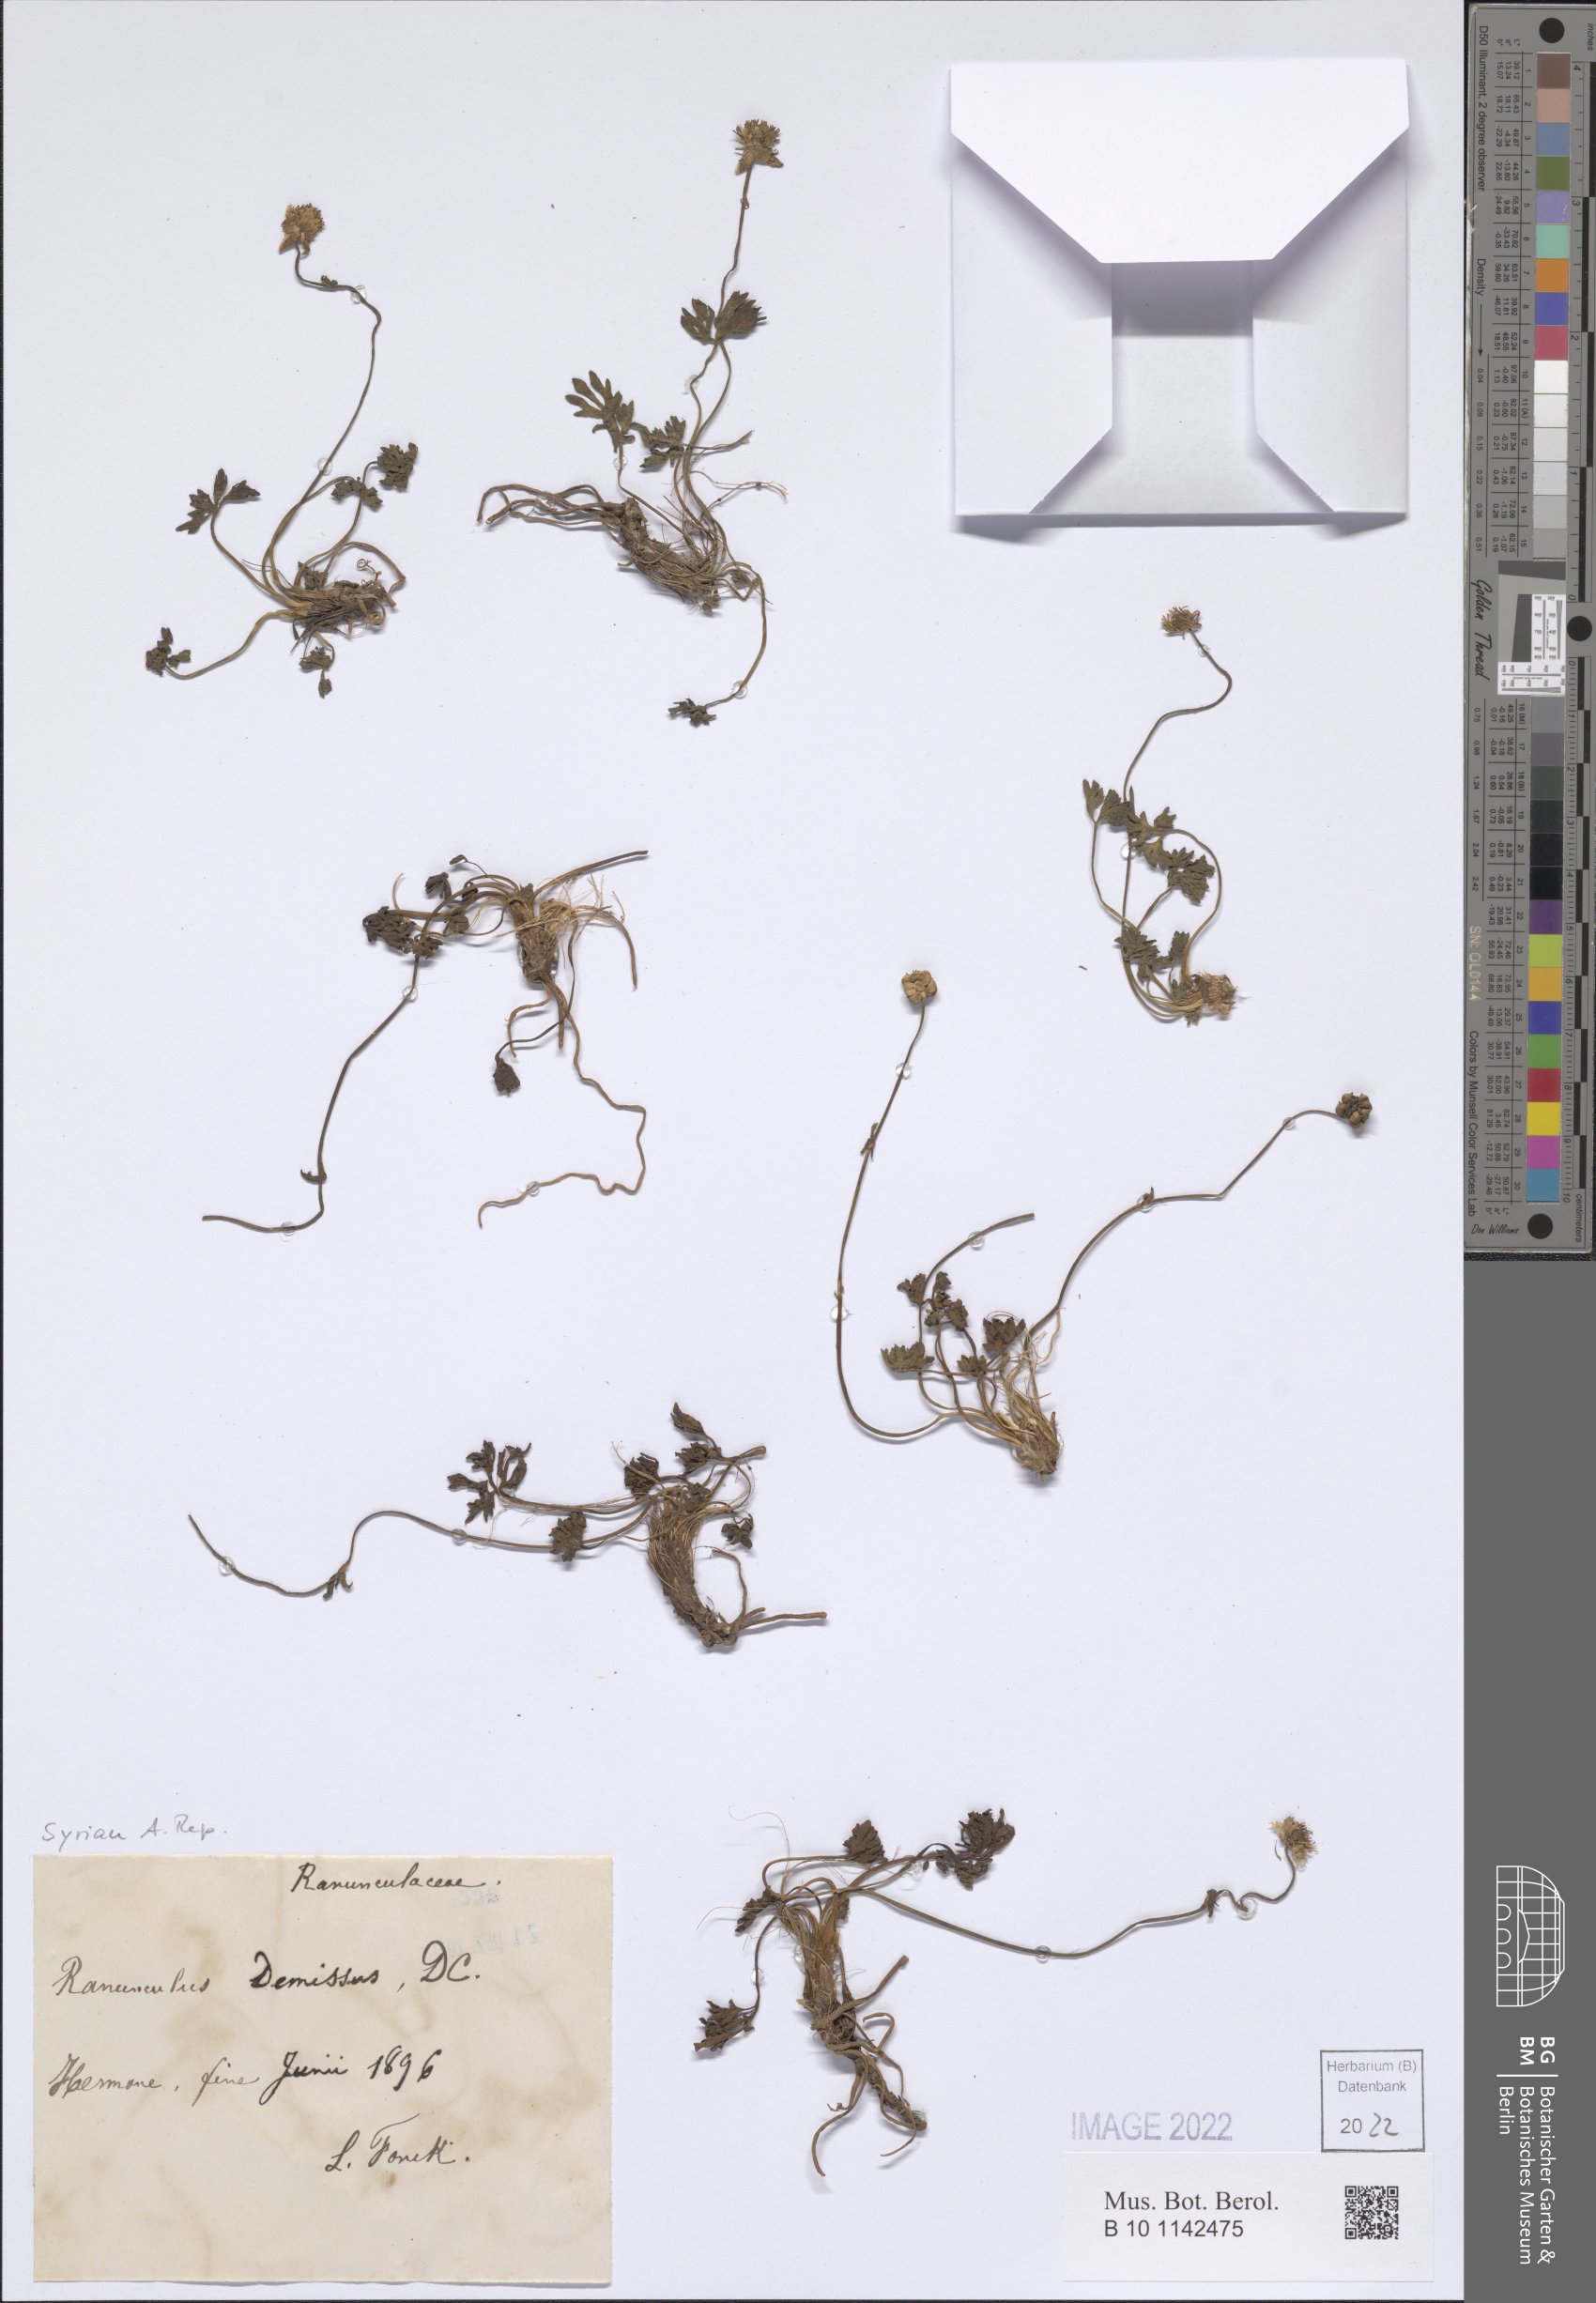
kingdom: Plantae
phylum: Tracheophyta
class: Magnoliopsida
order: Ranunculales
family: Ranunculaceae
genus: Ranunculus
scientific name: Ranunculus demissus
